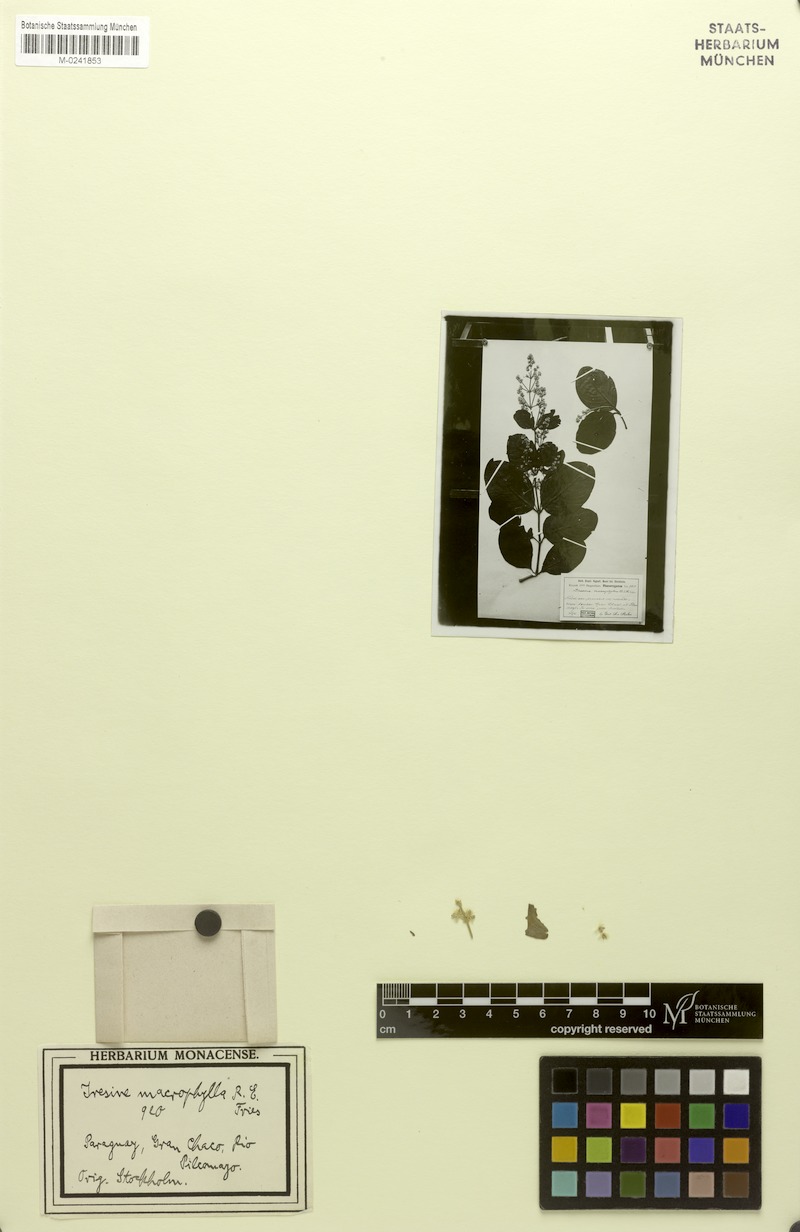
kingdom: Plantae
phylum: Tracheophyta
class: Magnoliopsida
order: Caryophyllales
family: Amaranthaceae
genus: Pedersenia
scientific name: Pedersenia macrophylla
